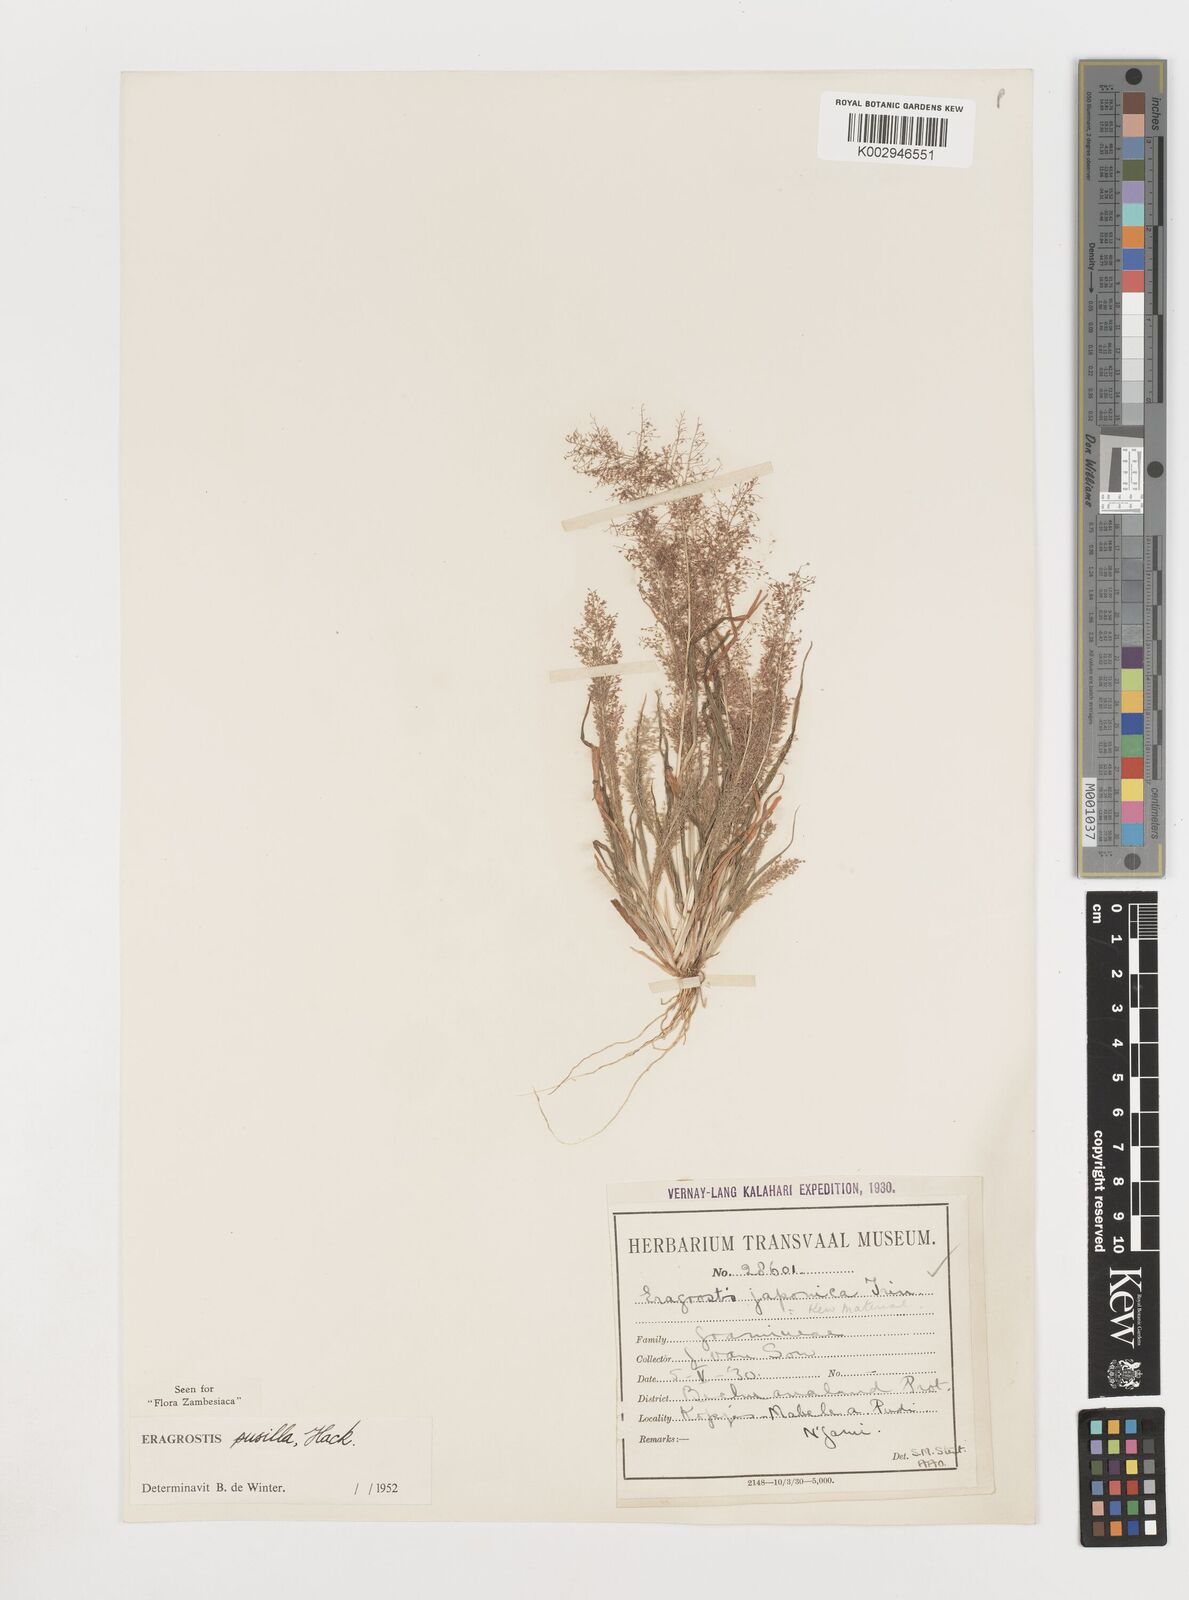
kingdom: Plantae
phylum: Tracheophyta
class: Liliopsida
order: Poales
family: Poaceae
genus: Eragrostis
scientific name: Eragrostis pusilla
